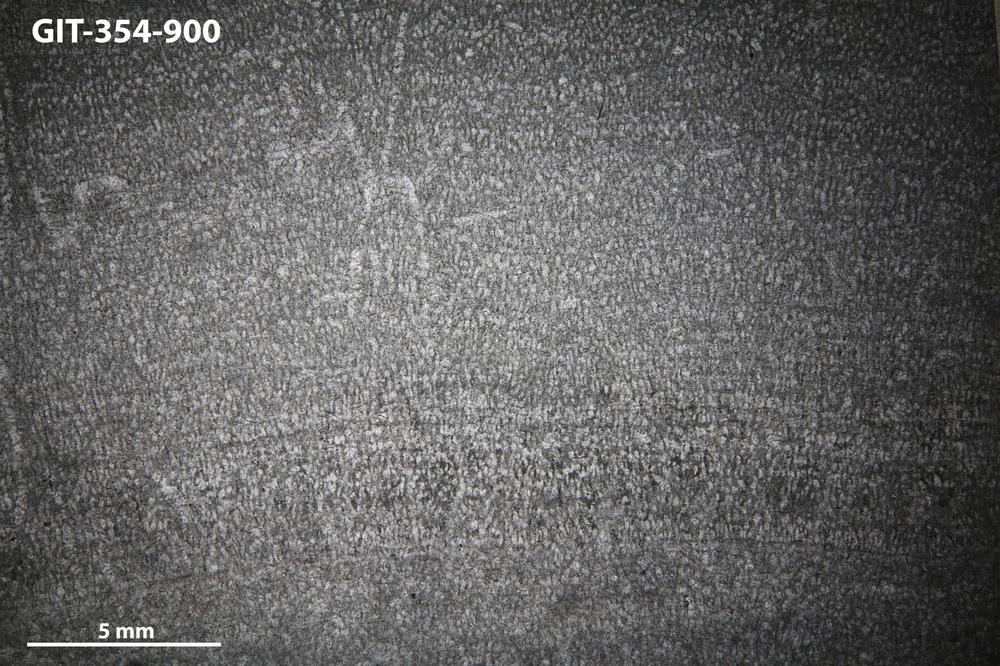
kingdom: Animalia
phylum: Porifera
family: Pseudolabechiidae
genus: Vikingia
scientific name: Vikingia
